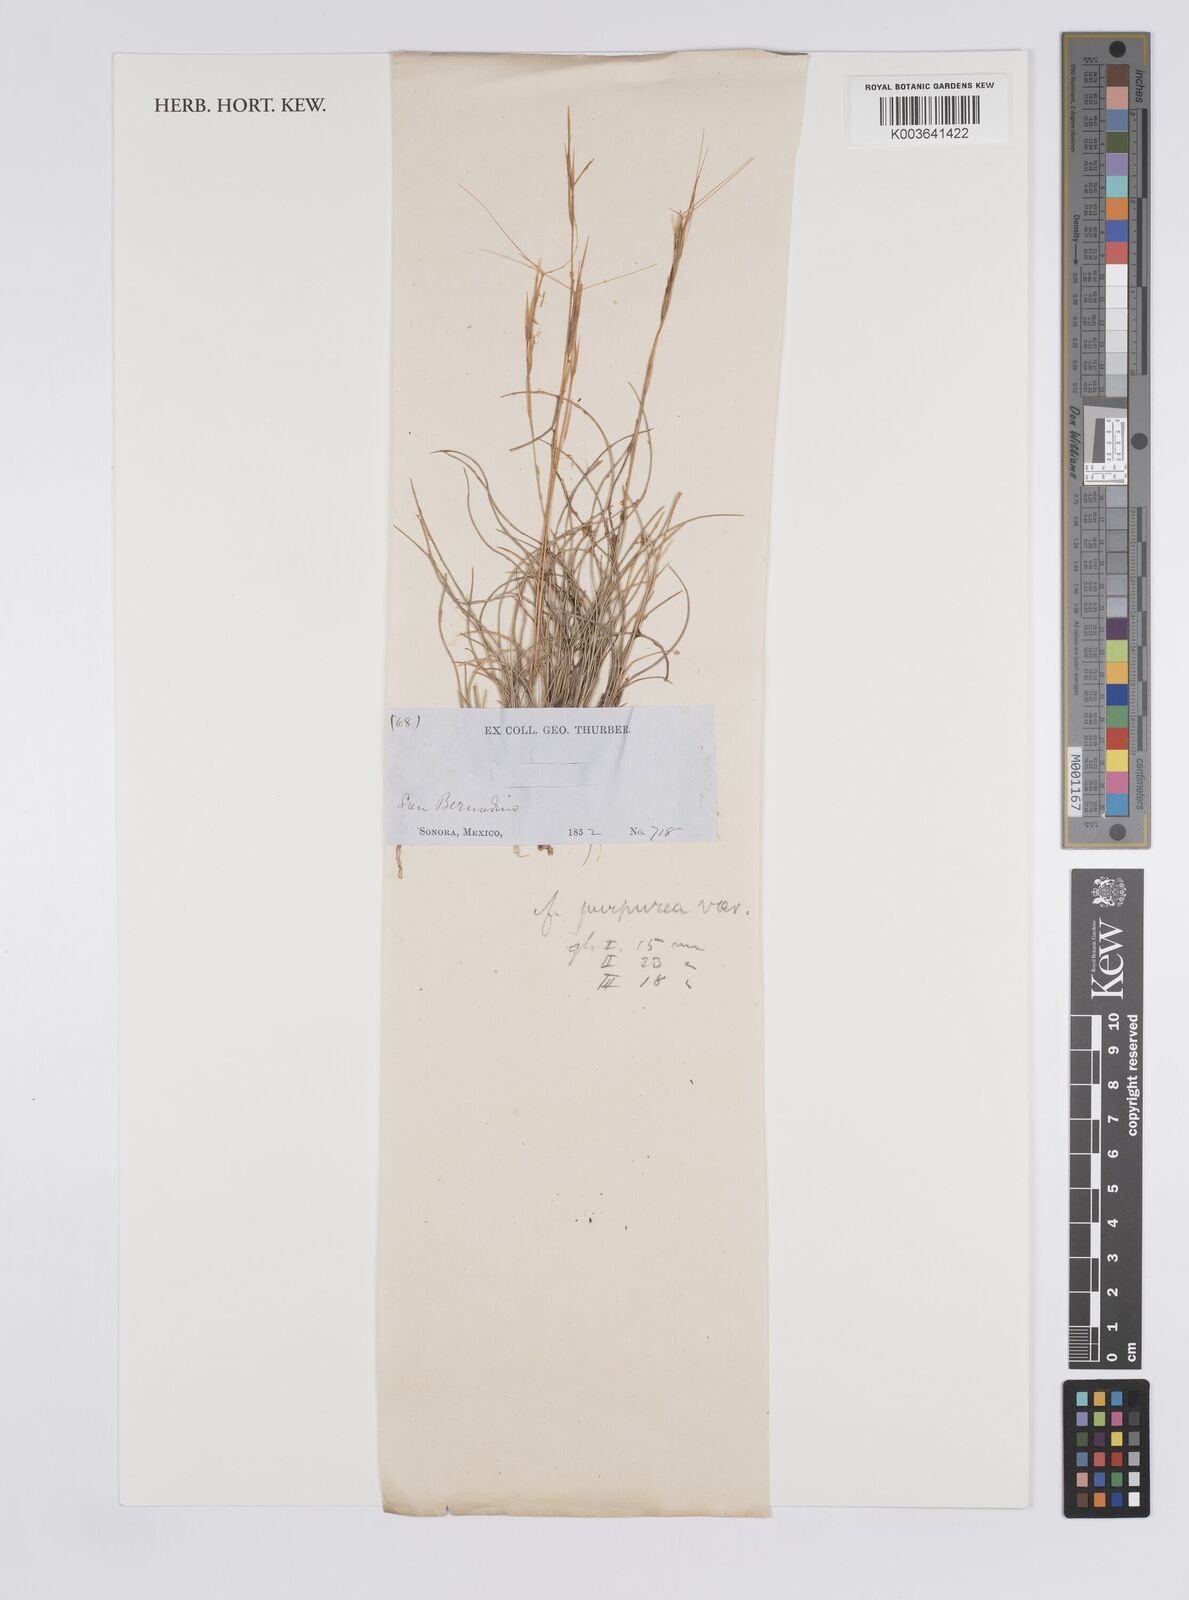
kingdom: Plantae
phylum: Tracheophyta
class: Liliopsida
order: Poales
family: Poaceae
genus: Aristida
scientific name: Aristida purpurea
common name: Purple threeawn
